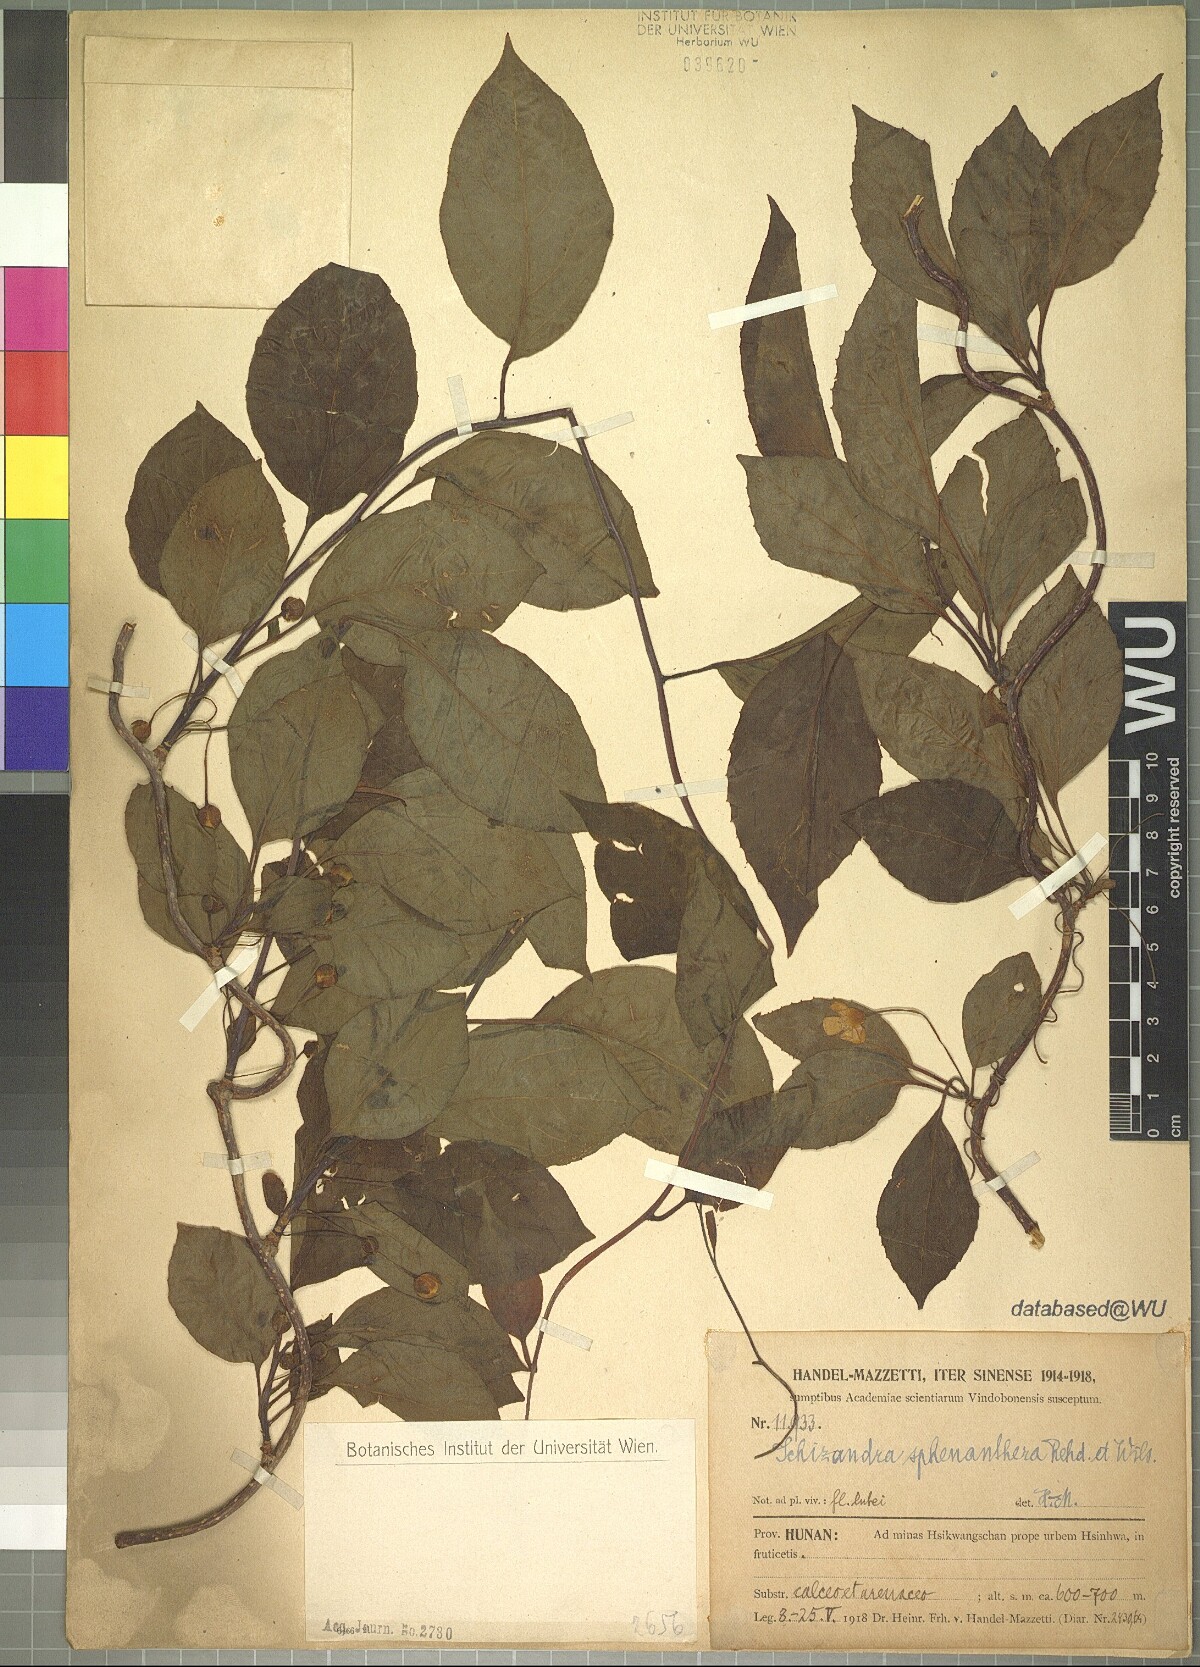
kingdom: Plantae
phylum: Tracheophyta
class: Magnoliopsida
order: Austrobaileyales
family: Schisandraceae
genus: Schisandra
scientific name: Schisandra sphenanthera
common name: Lemonwood
